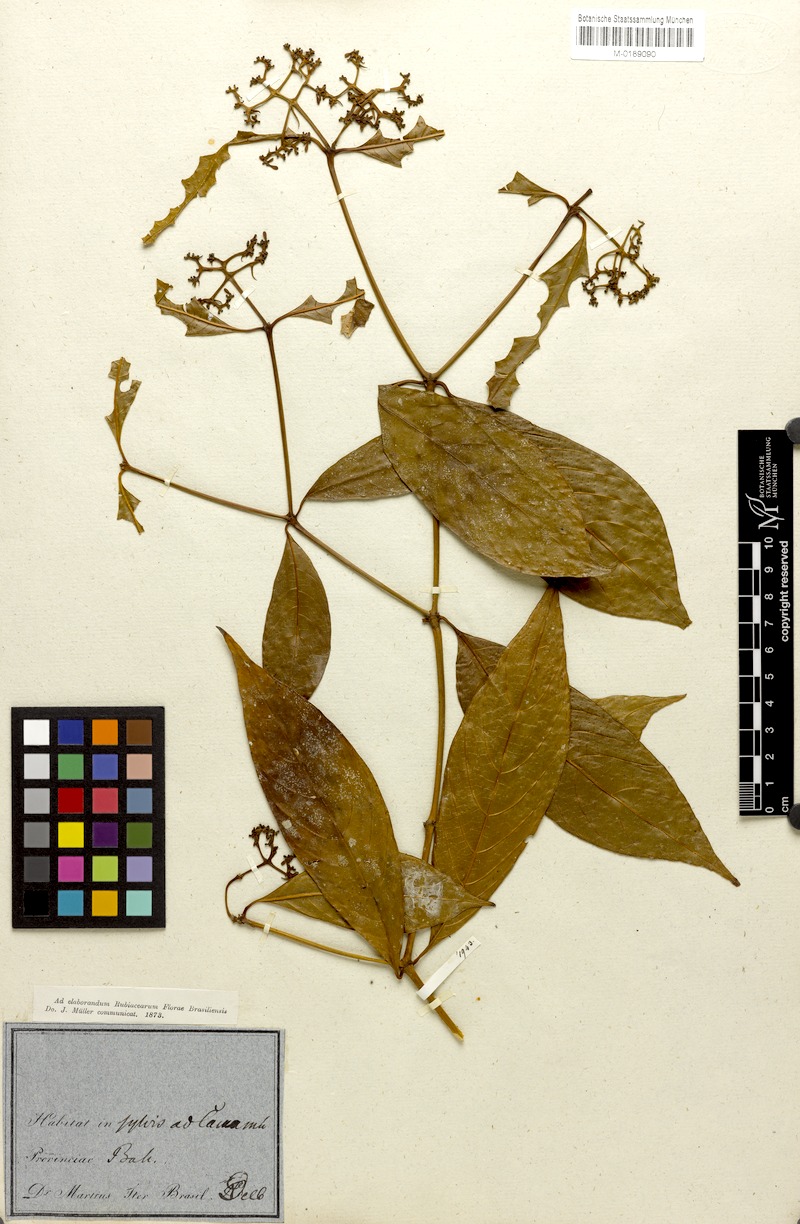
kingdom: Plantae
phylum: Tracheophyta
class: Magnoliopsida
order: Gentianales
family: Rubiaceae
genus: Psychotria
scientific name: Psychotria silvicola
